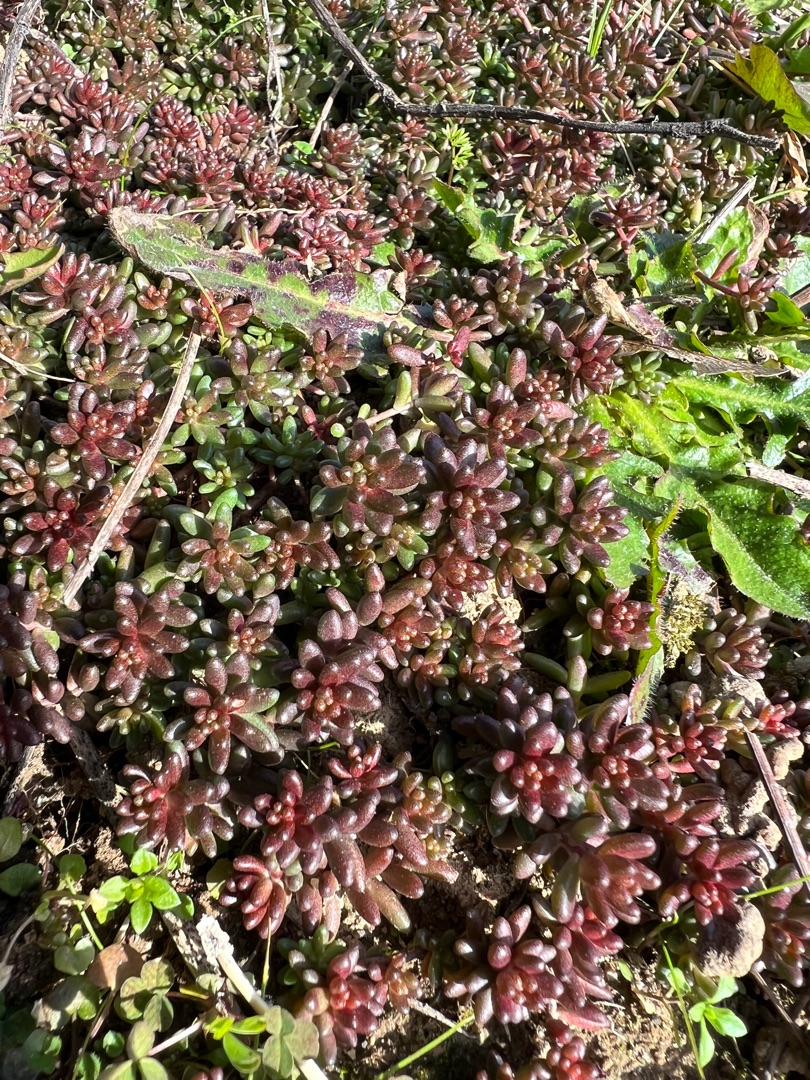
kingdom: Plantae
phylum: Tracheophyta
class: Magnoliopsida
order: Saxifragales
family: Crassulaceae
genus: Sedum
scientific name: Sedum album
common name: Hvid stenurt
